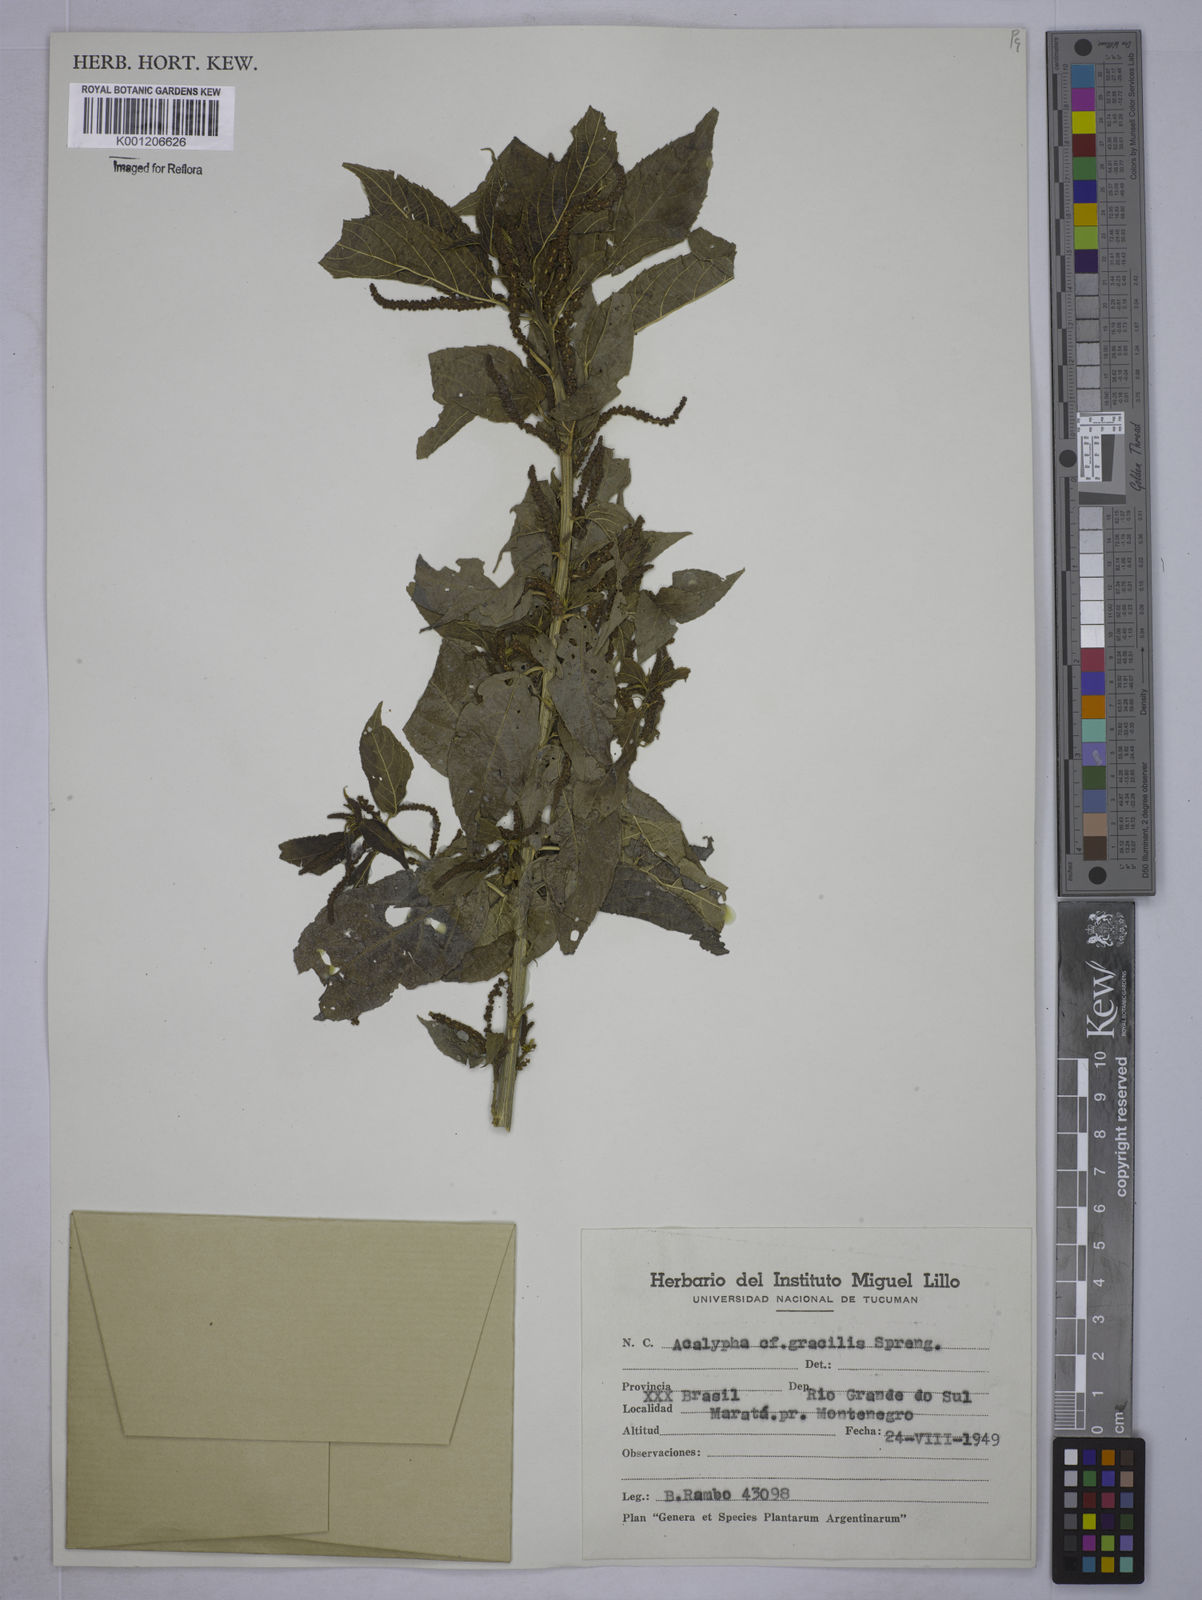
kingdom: Plantae
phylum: Tracheophyta
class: Magnoliopsida
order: Malpighiales
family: Euphorbiaceae
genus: Acalypha
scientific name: Acalypha gracilis
